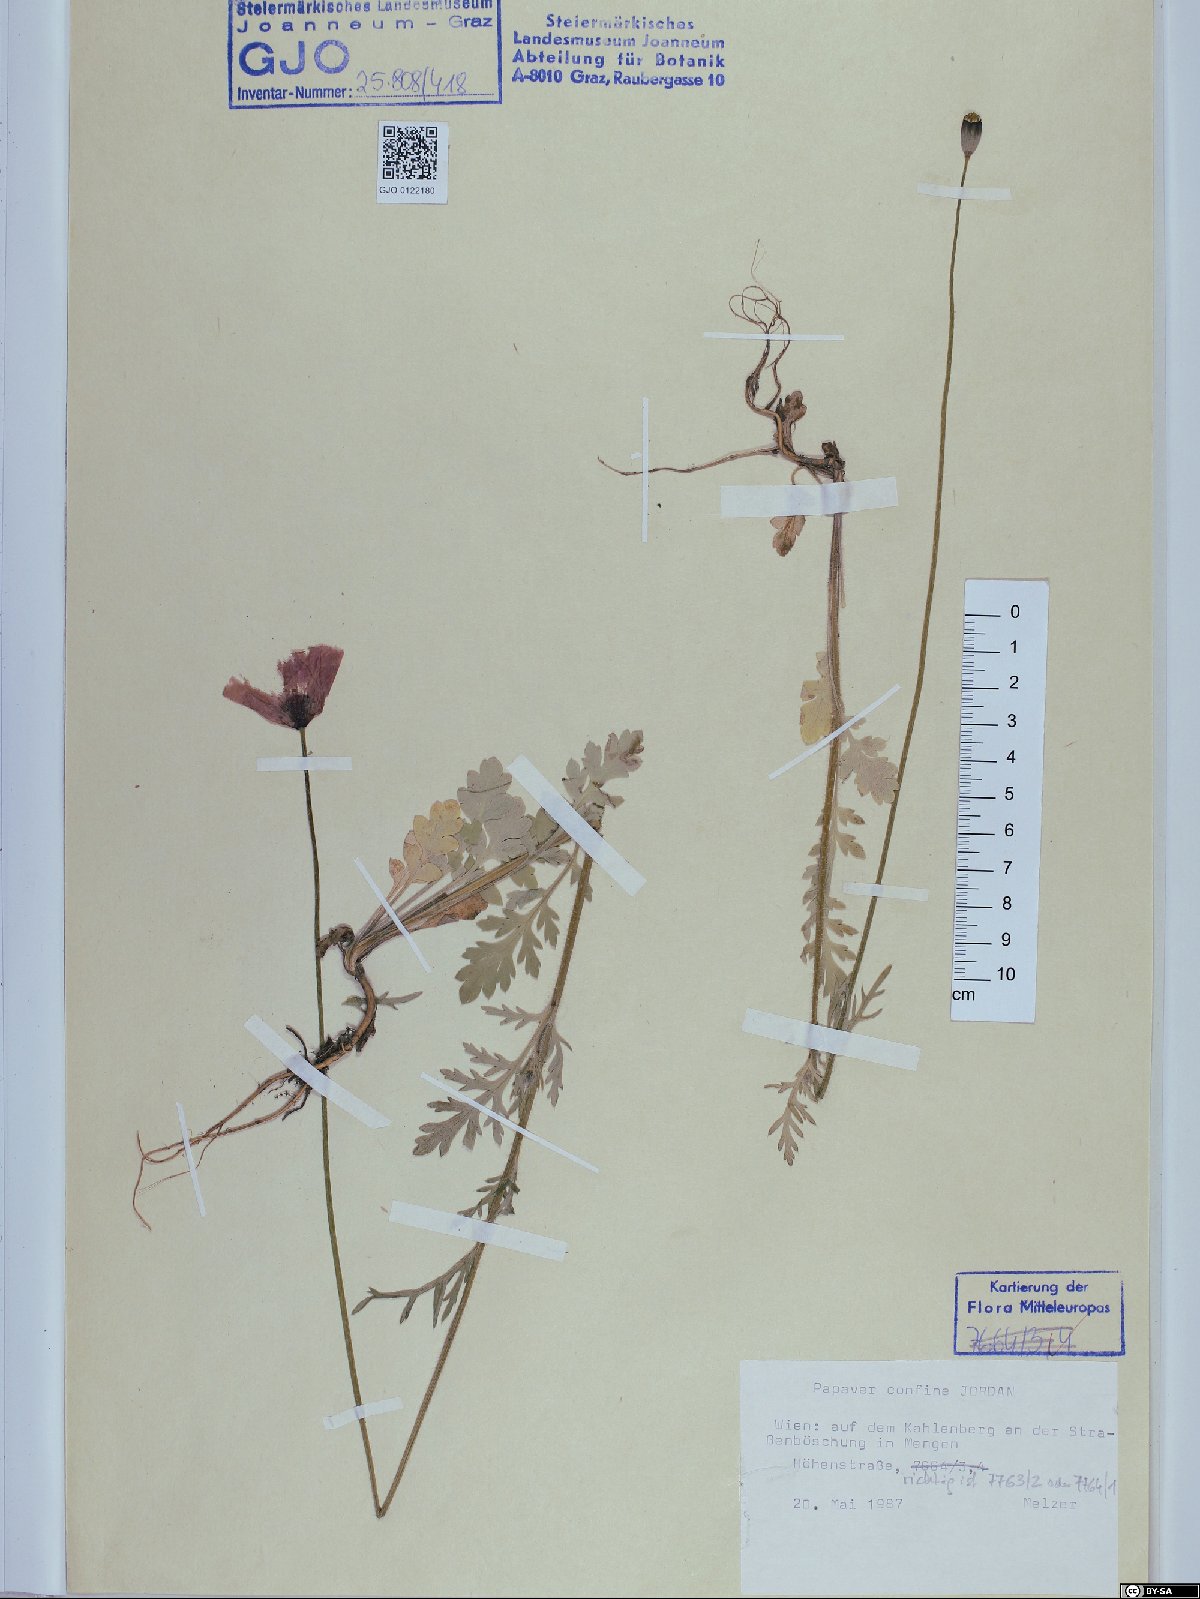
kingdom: Plantae
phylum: Tracheophyta
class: Magnoliopsida
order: Ranunculales
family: Papaveraceae
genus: Papaver
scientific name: Papaver confine
